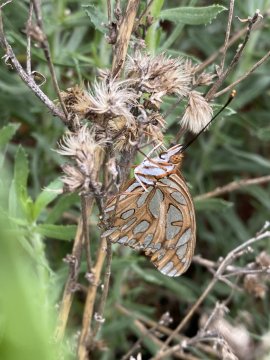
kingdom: Animalia
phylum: Arthropoda
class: Insecta
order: Lepidoptera
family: Nymphalidae
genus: Dione
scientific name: Dione vanillae
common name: Gulf Fritillary
